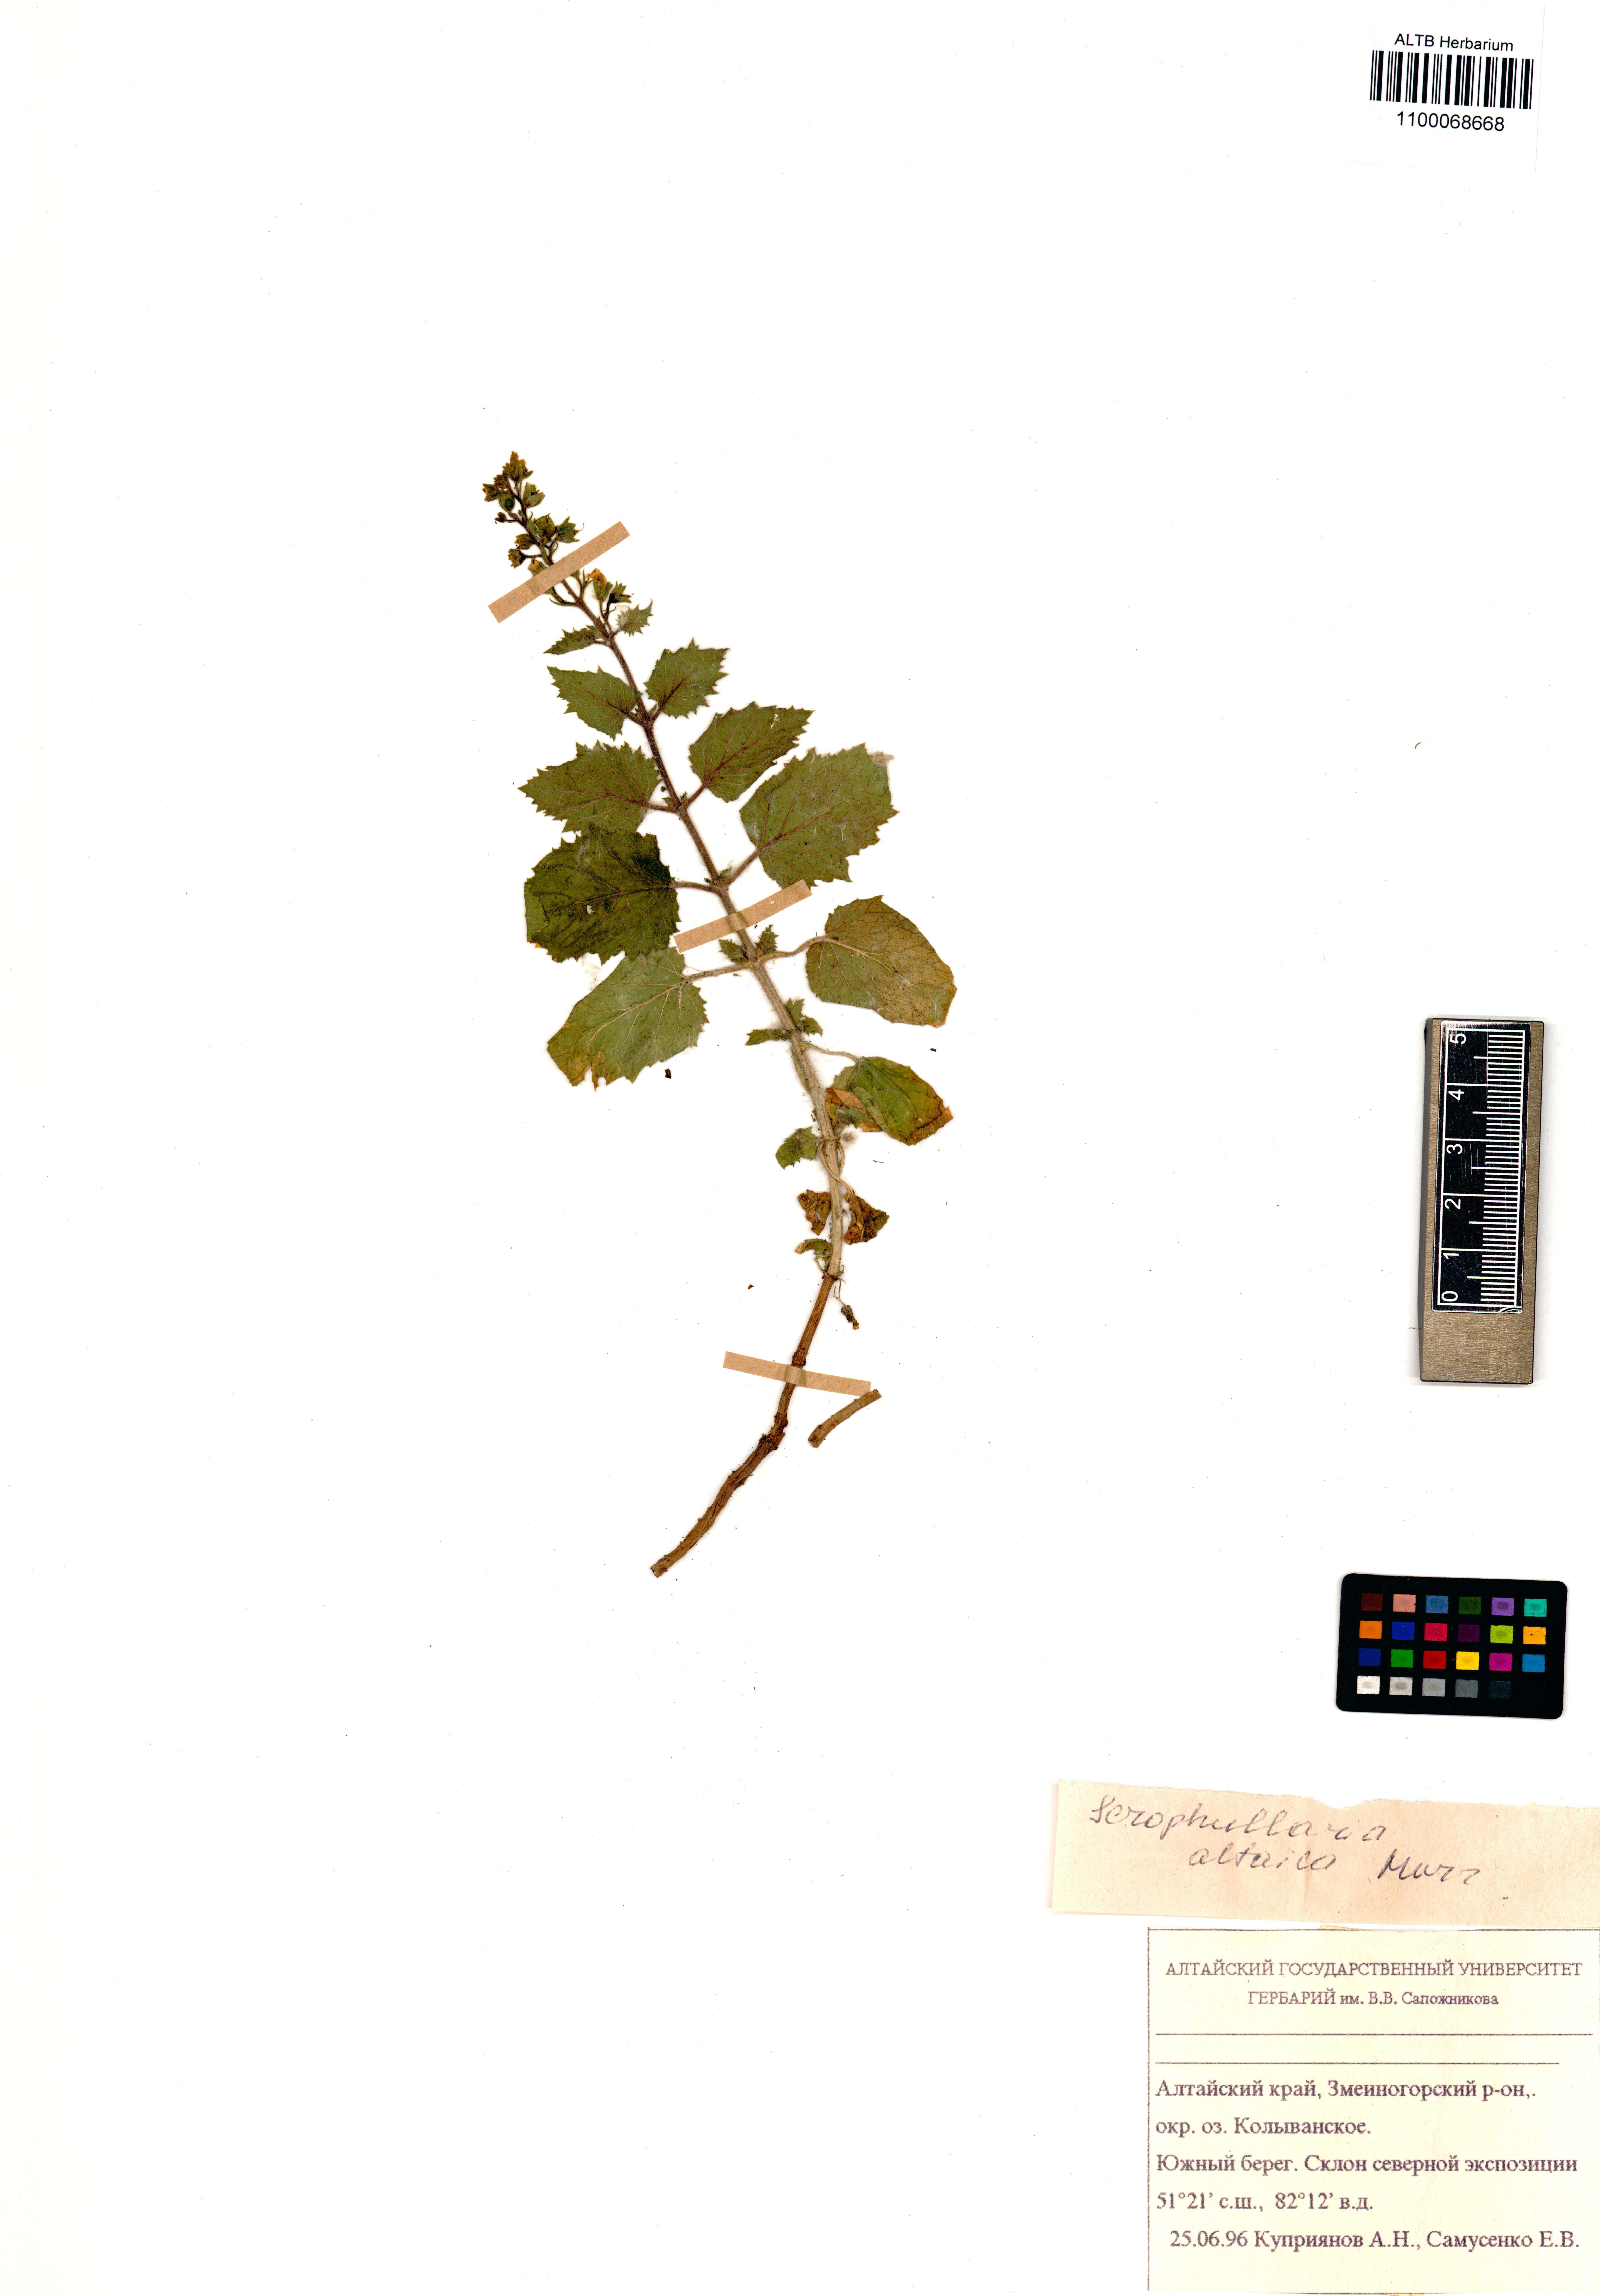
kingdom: Plantae
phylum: Tracheophyta
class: Magnoliopsida
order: Lamiales
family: Scrophulariaceae
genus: Scrophularia
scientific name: Scrophularia altaica
